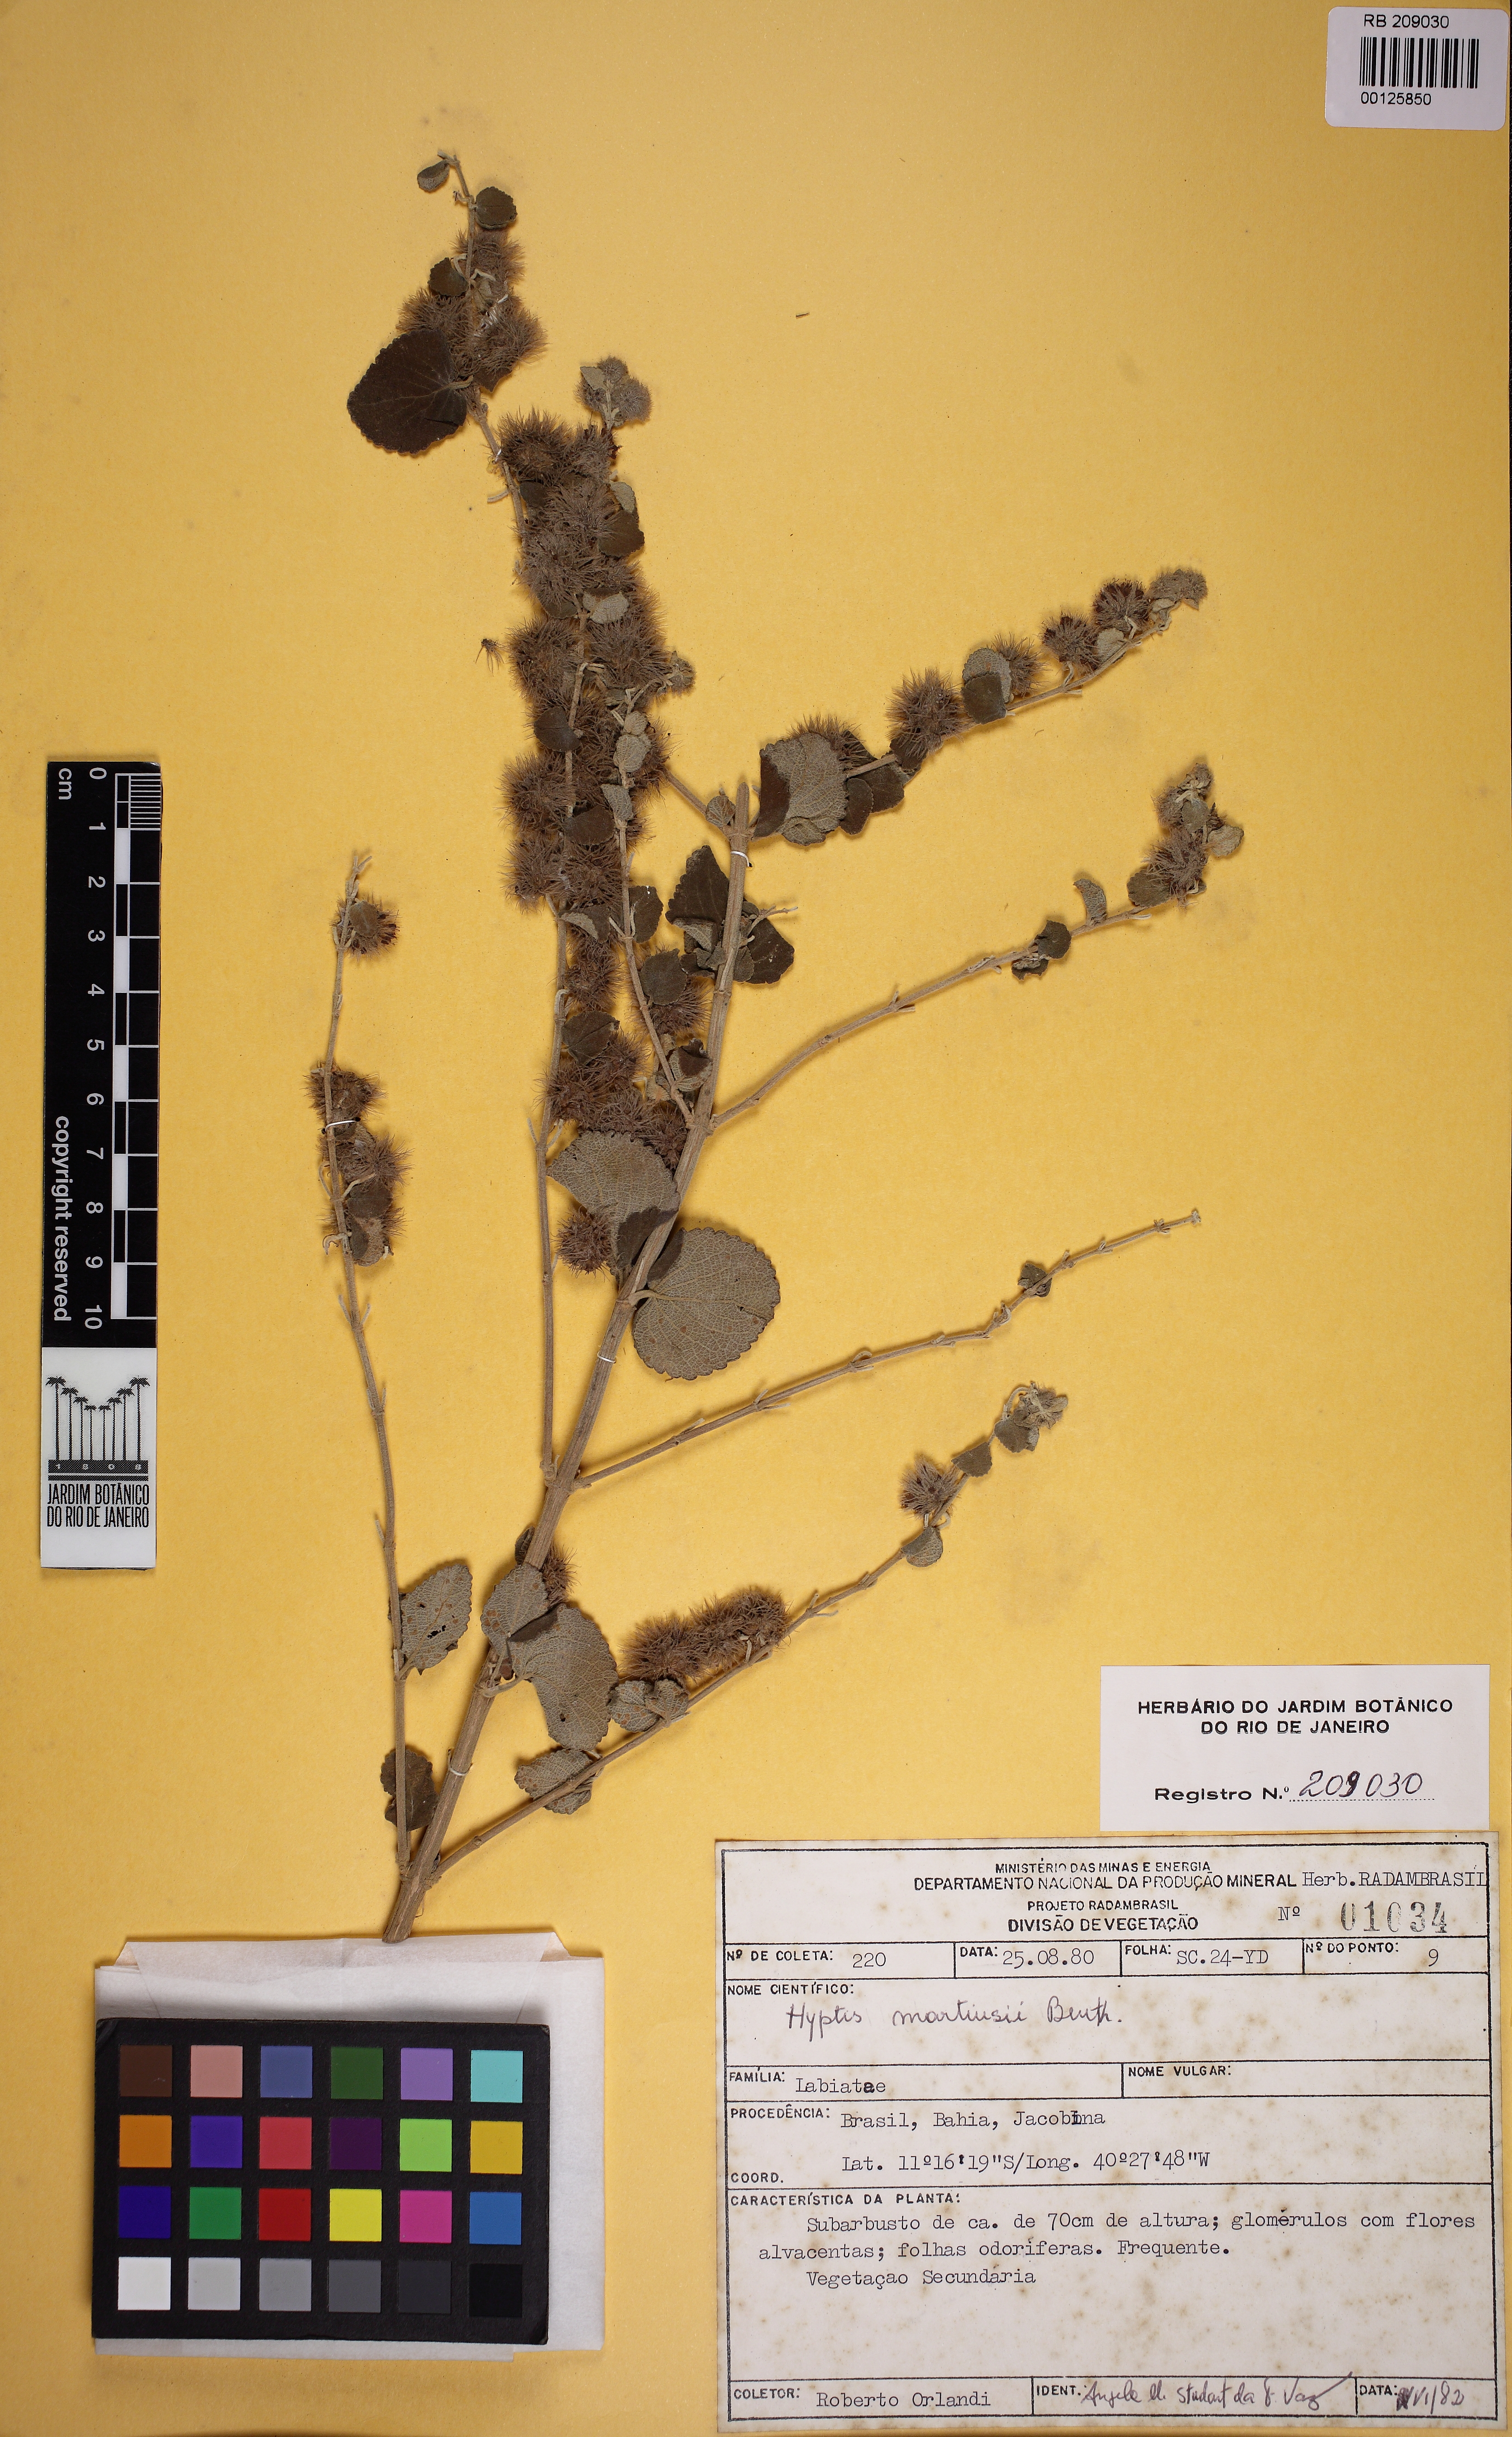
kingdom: Plantae
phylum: Tracheophyta
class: Magnoliopsida
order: Lamiales
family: Lamiaceae
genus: Medusantha
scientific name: Medusantha martiusii
